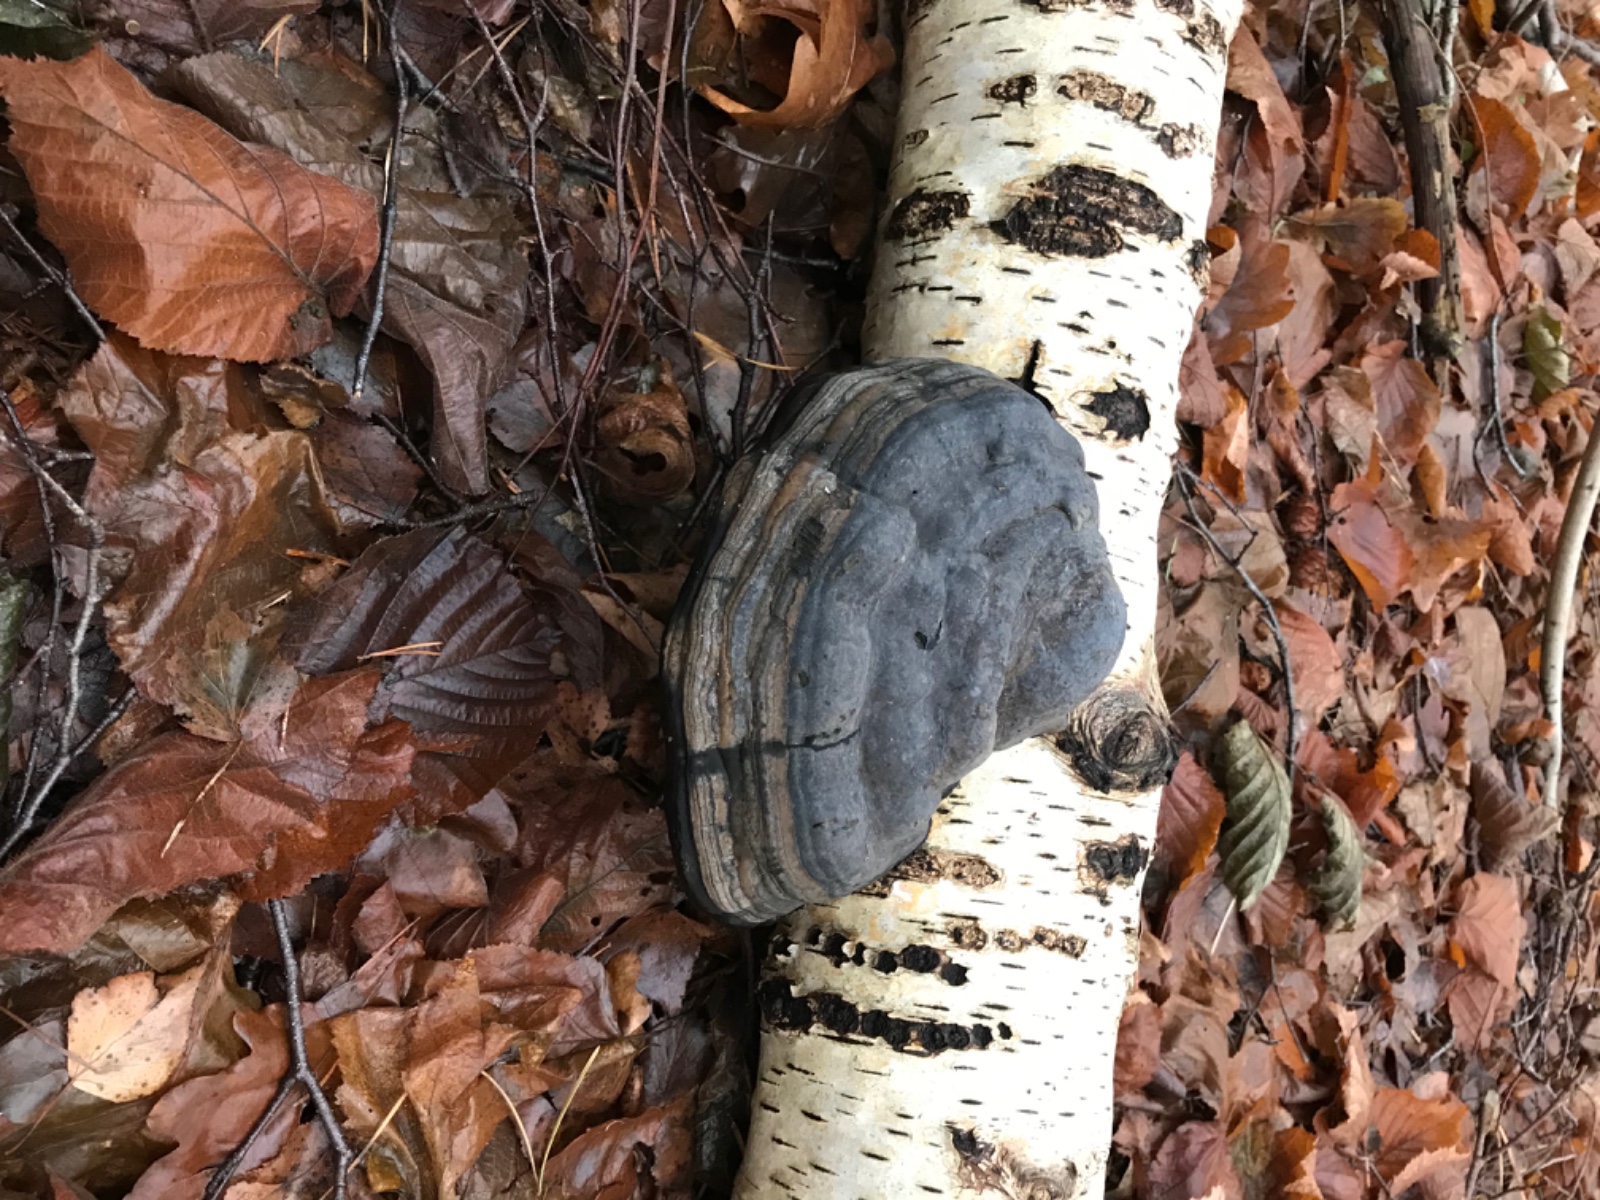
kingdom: Fungi
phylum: Basidiomycota
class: Agaricomycetes
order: Polyporales
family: Polyporaceae
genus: Fomes
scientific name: Fomes fomentarius
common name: tøndersvamp
